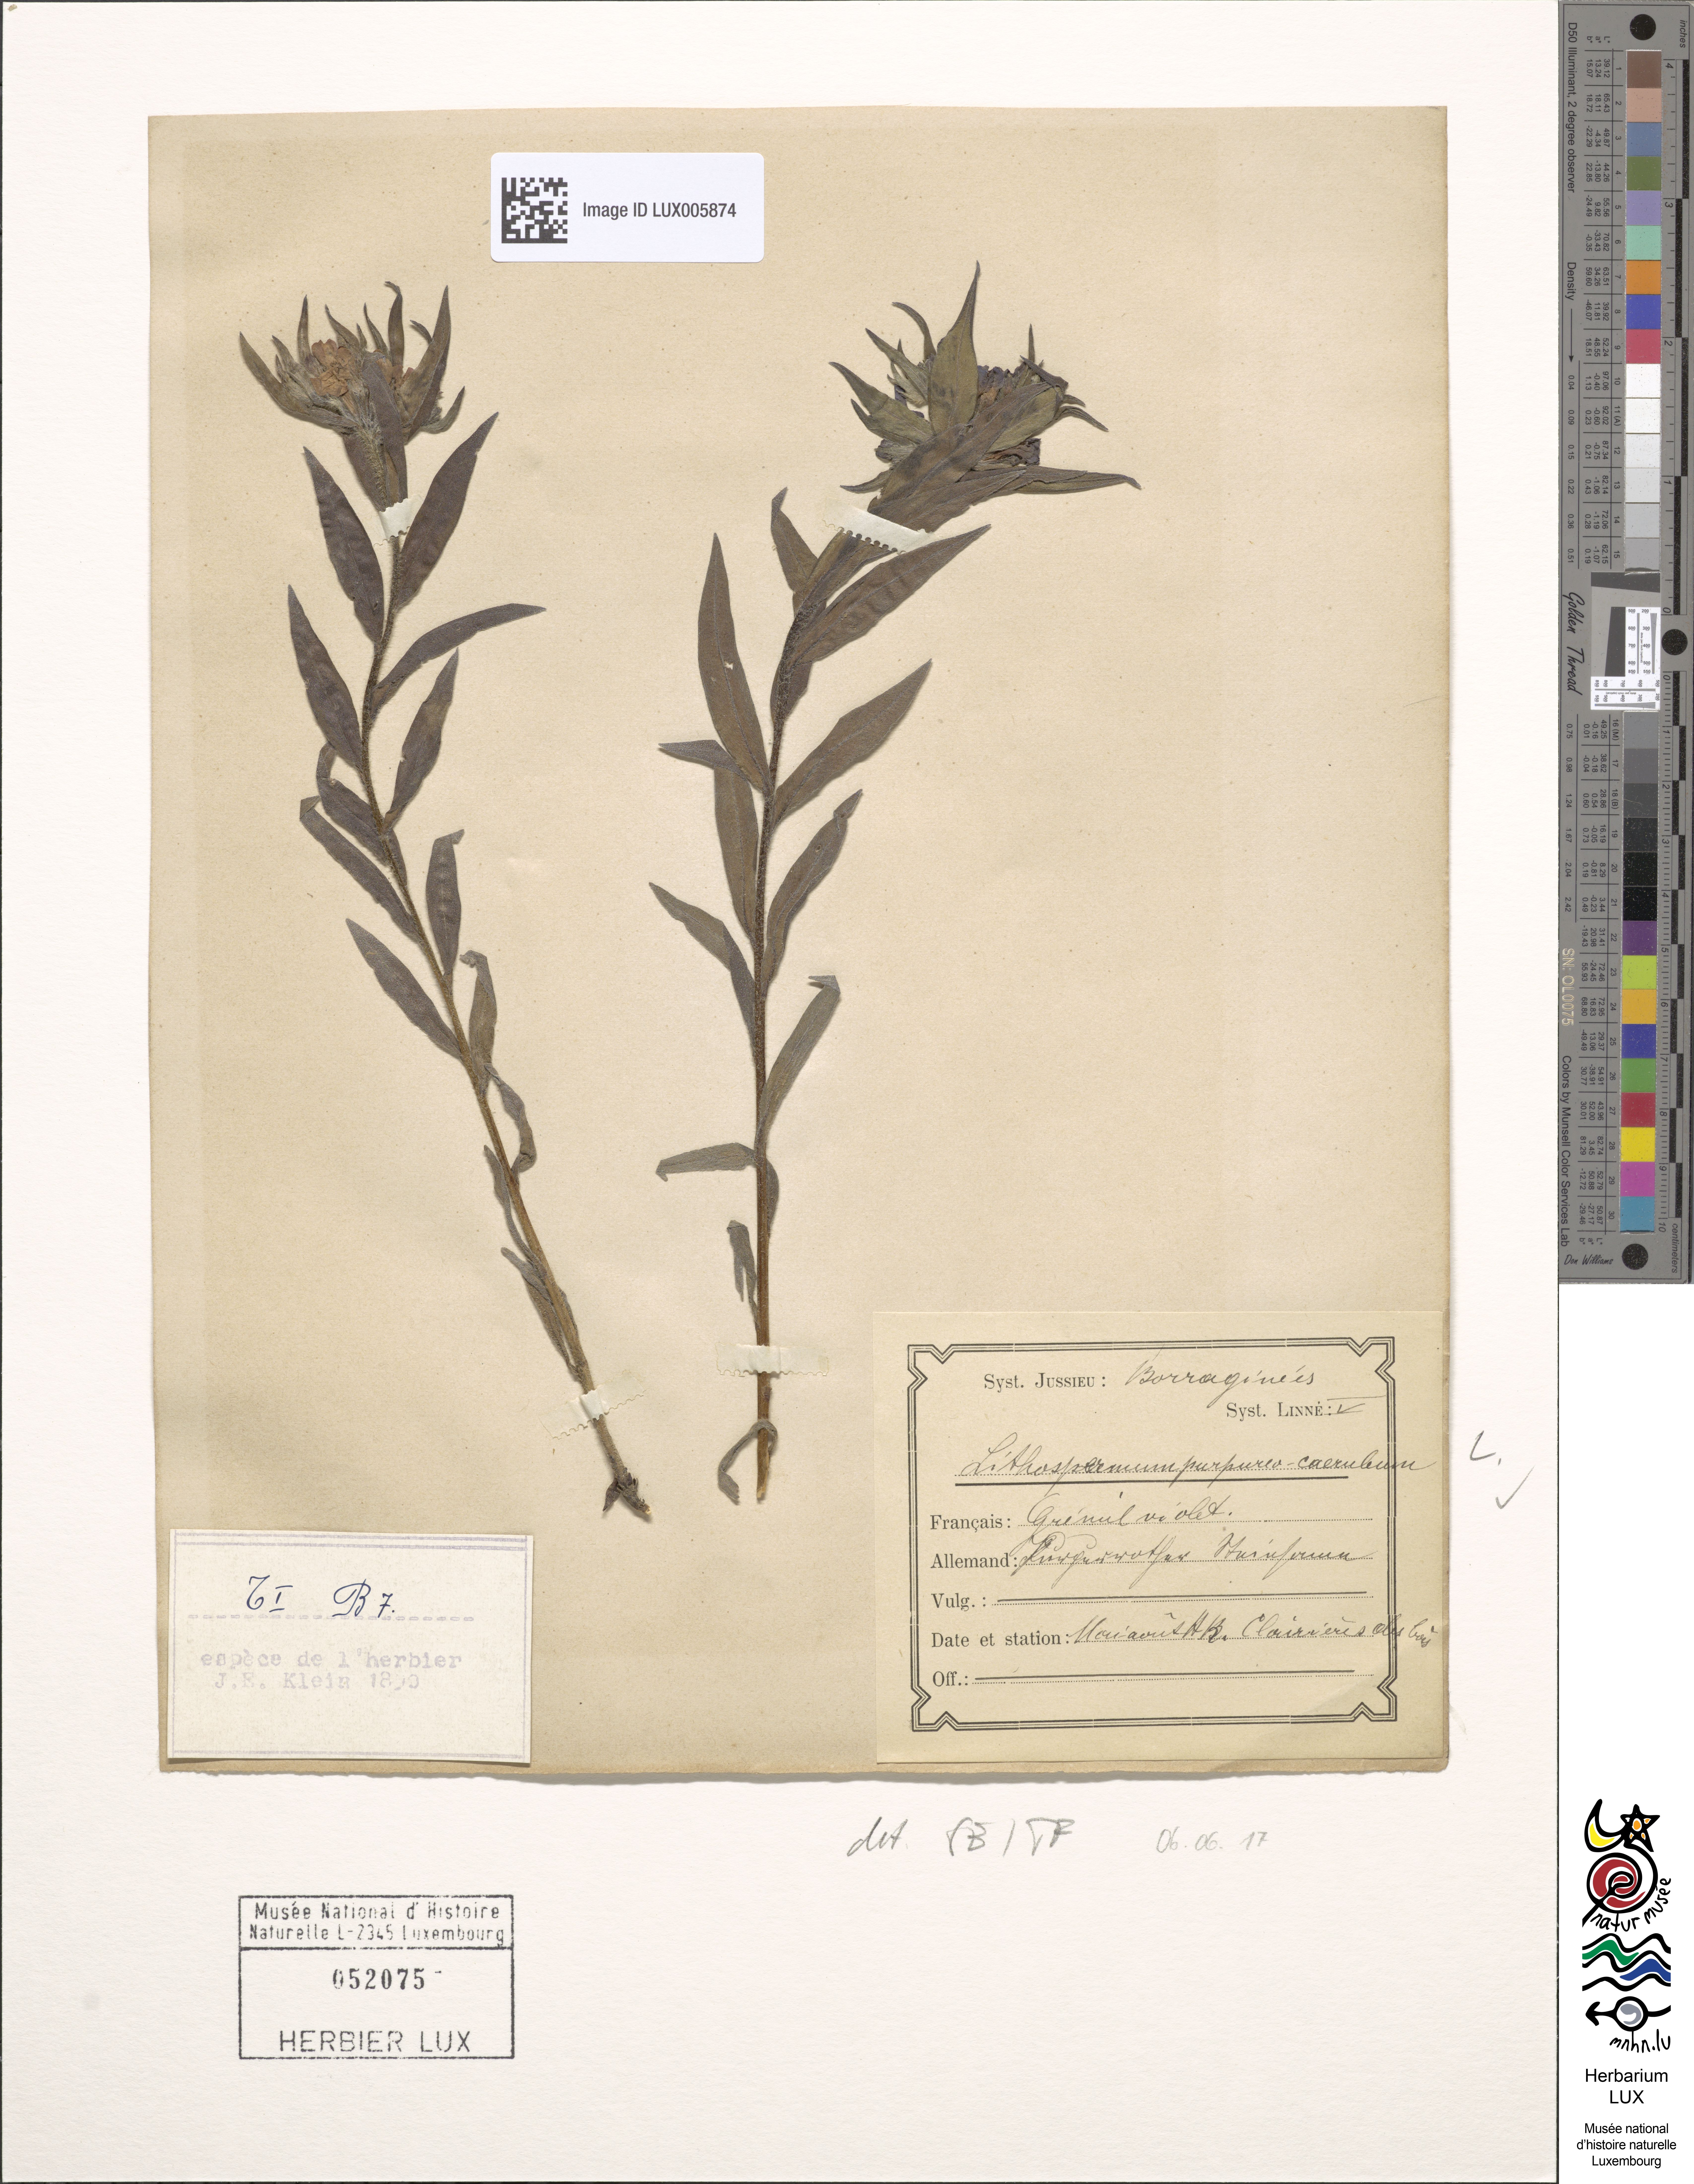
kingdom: Plantae
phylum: Tracheophyta
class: Magnoliopsida
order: Boraginales
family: Boraginaceae
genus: Aegonychon
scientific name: Aegonychon purpurocaeruleum
